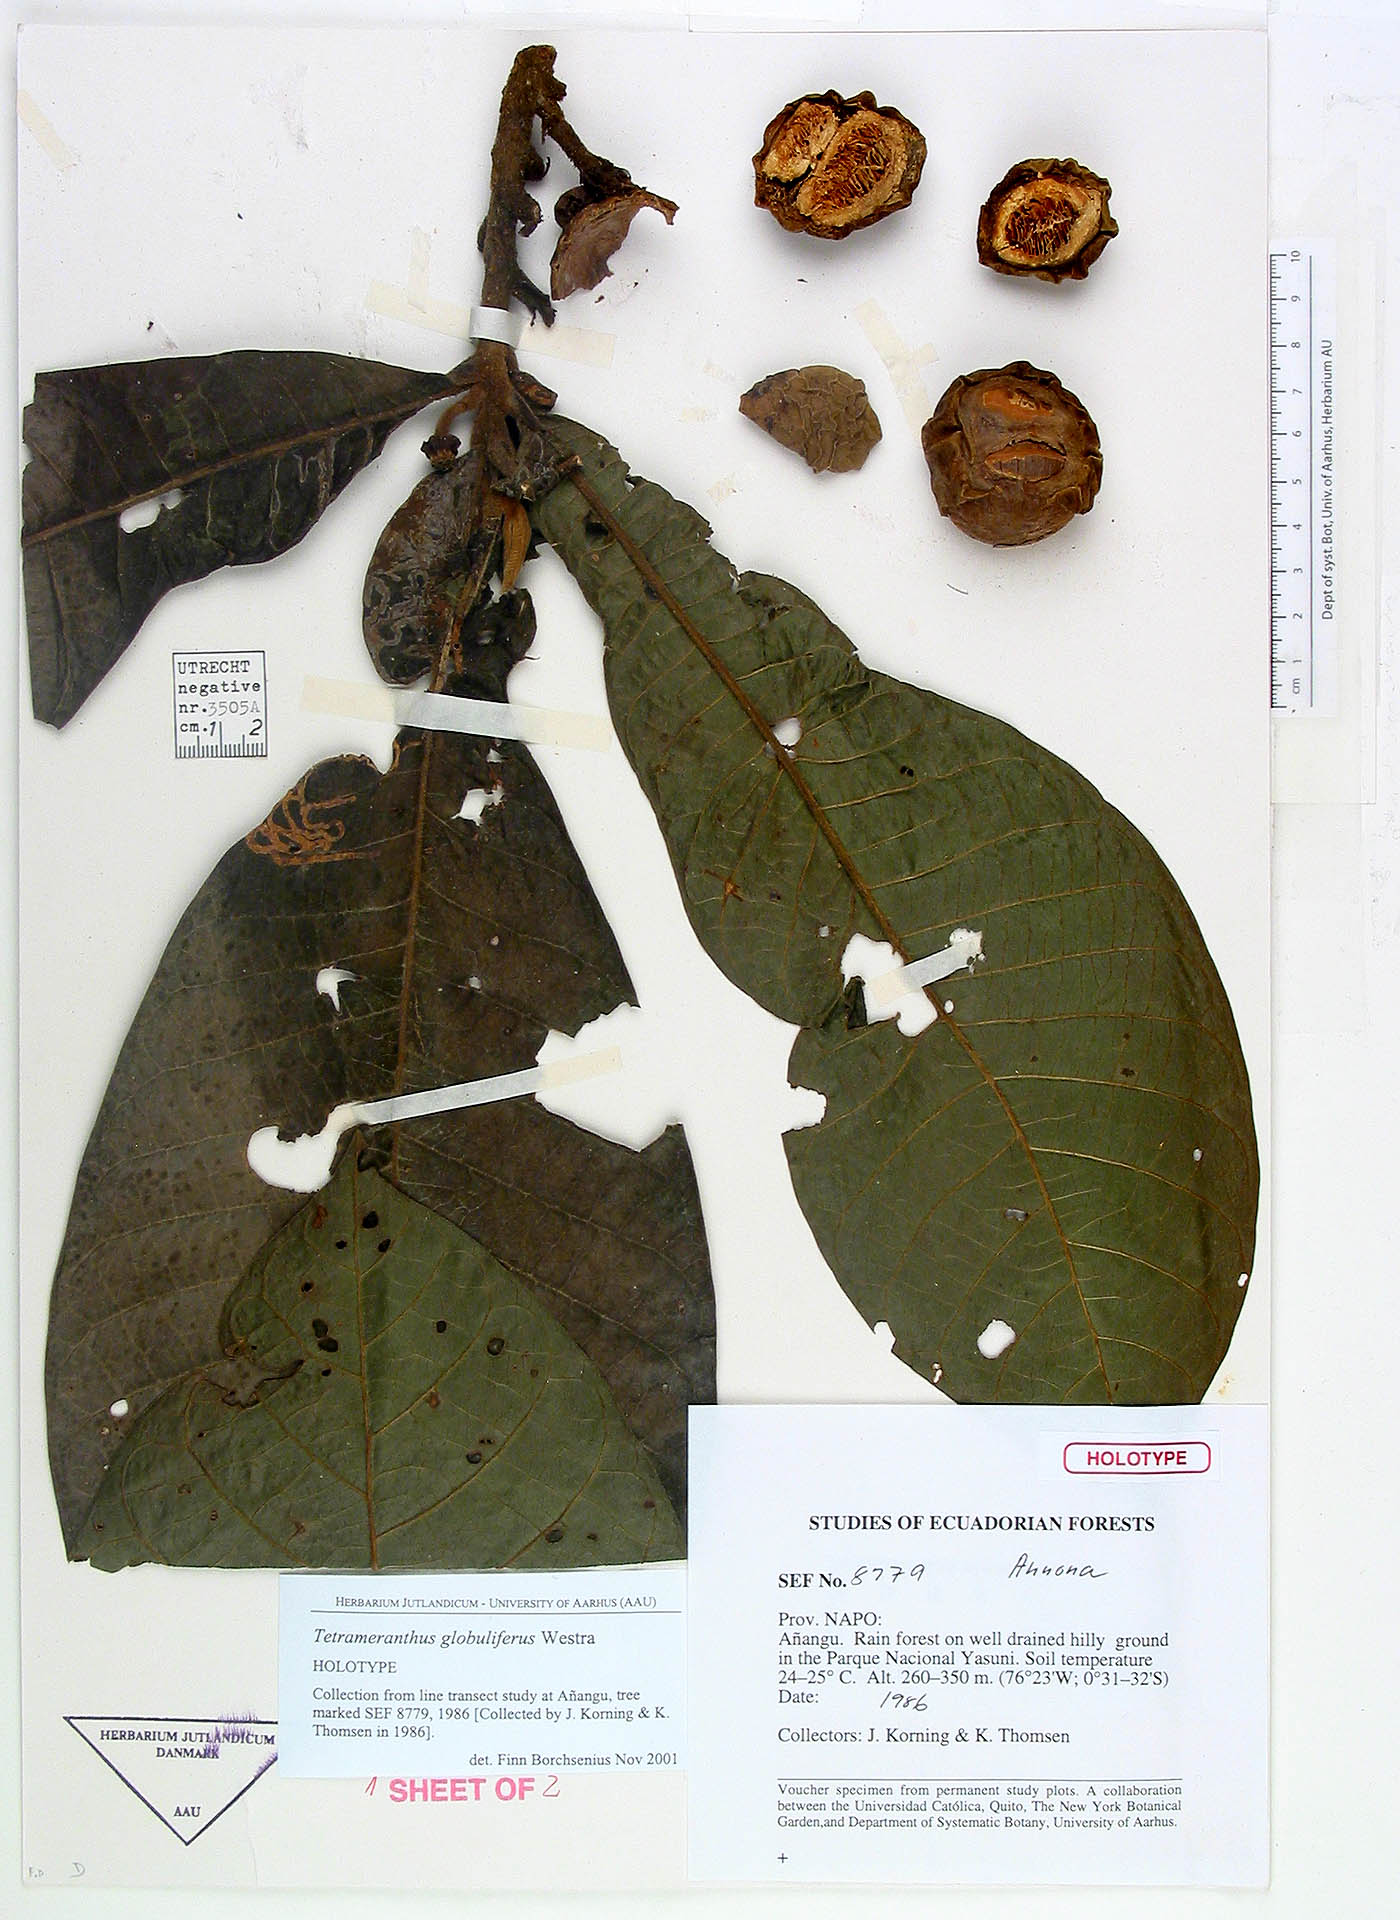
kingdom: Plantae
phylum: Tracheophyta
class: Magnoliopsida
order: Magnoliales
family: Annonaceae
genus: Tetrameranthus
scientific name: Tetrameranthus globuliferus
